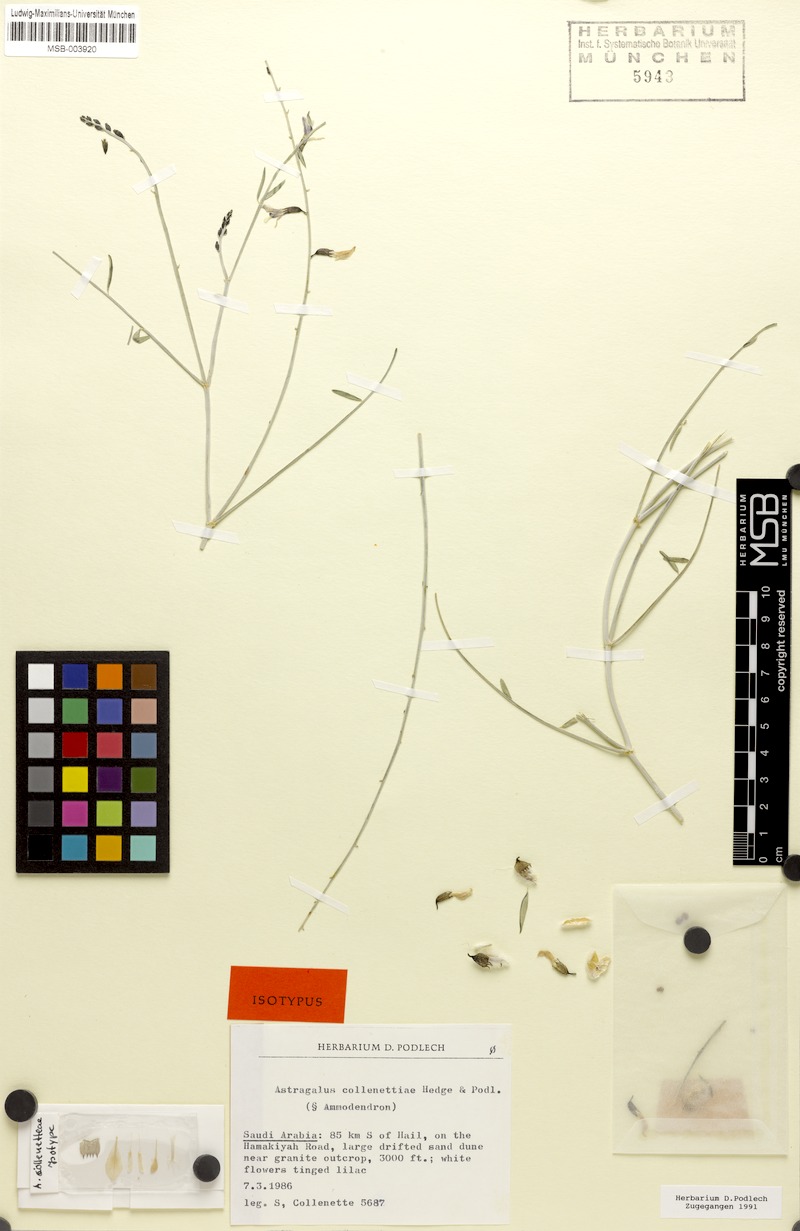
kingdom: Plantae
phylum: Tracheophyta
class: Magnoliopsida
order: Fabales
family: Fabaceae
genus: Astragalus
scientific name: Astragalus collenetteae
